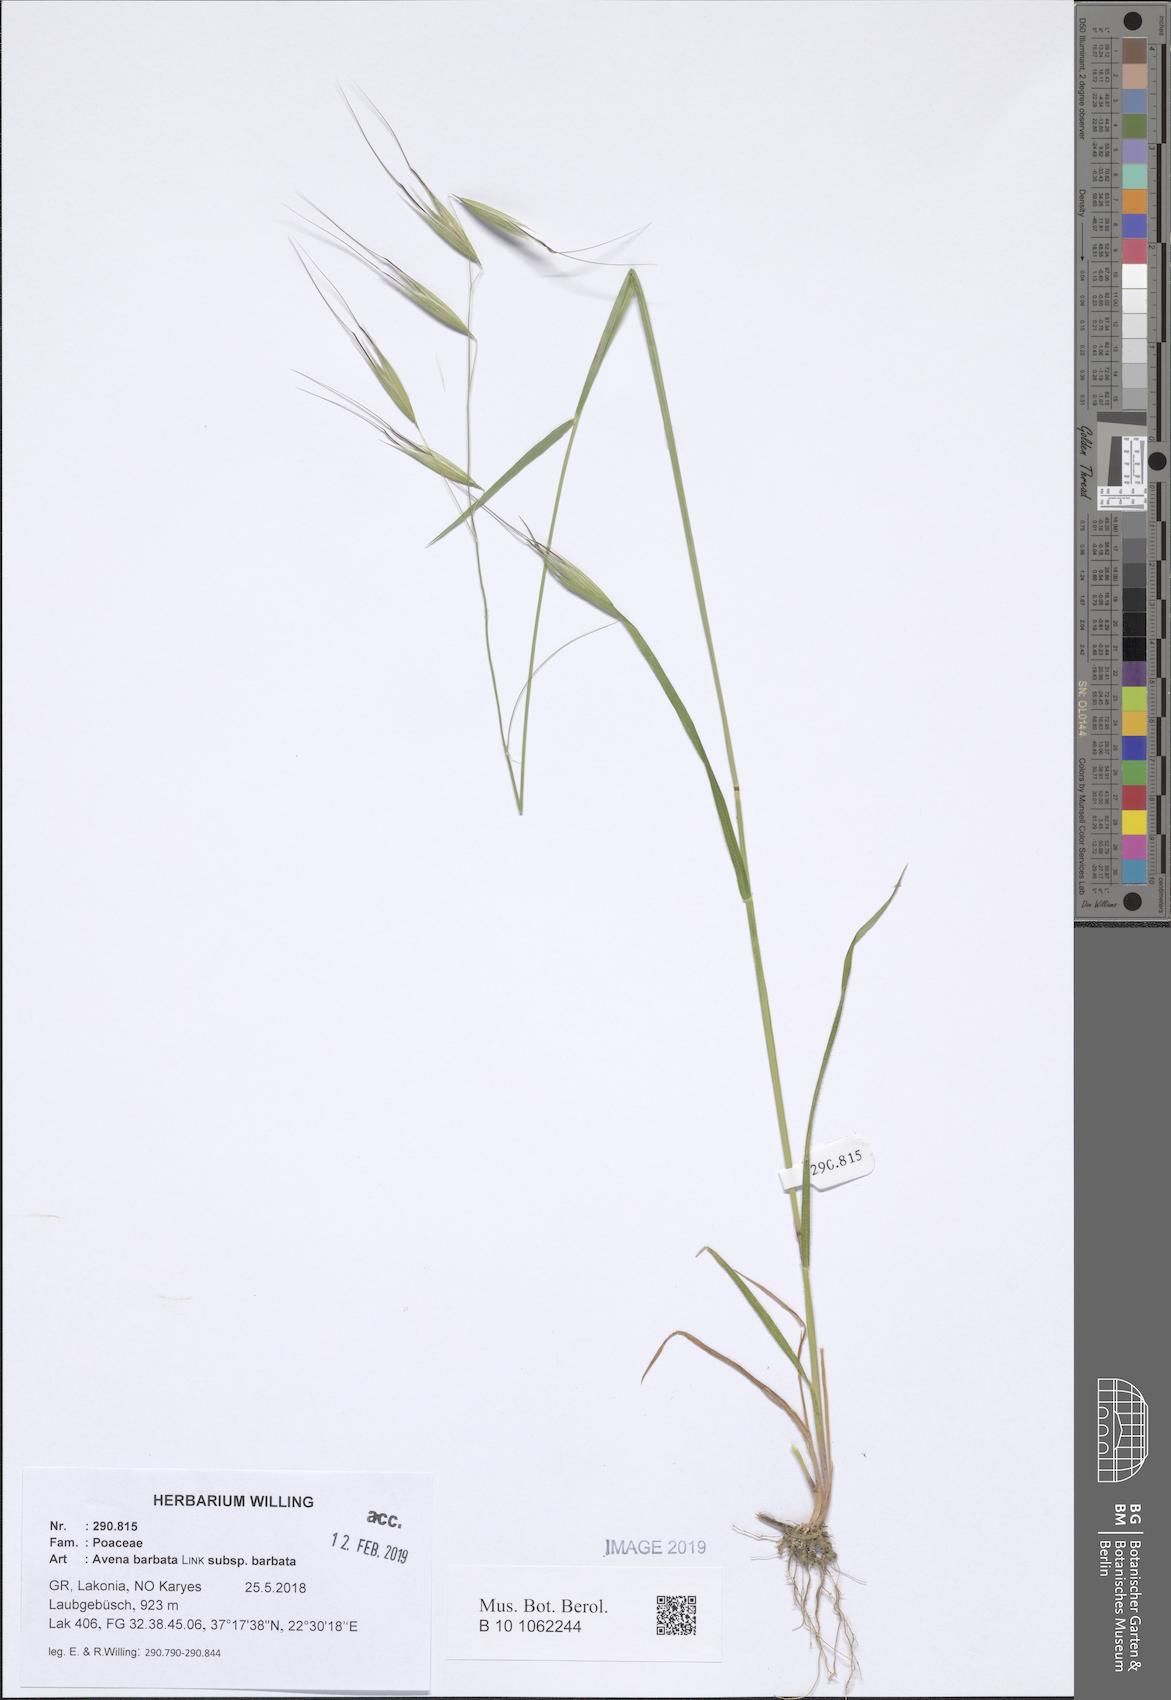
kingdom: Plantae
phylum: Tracheophyta
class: Liliopsida
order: Poales
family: Poaceae
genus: Avena
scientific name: Avena barbata
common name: Slender oat
